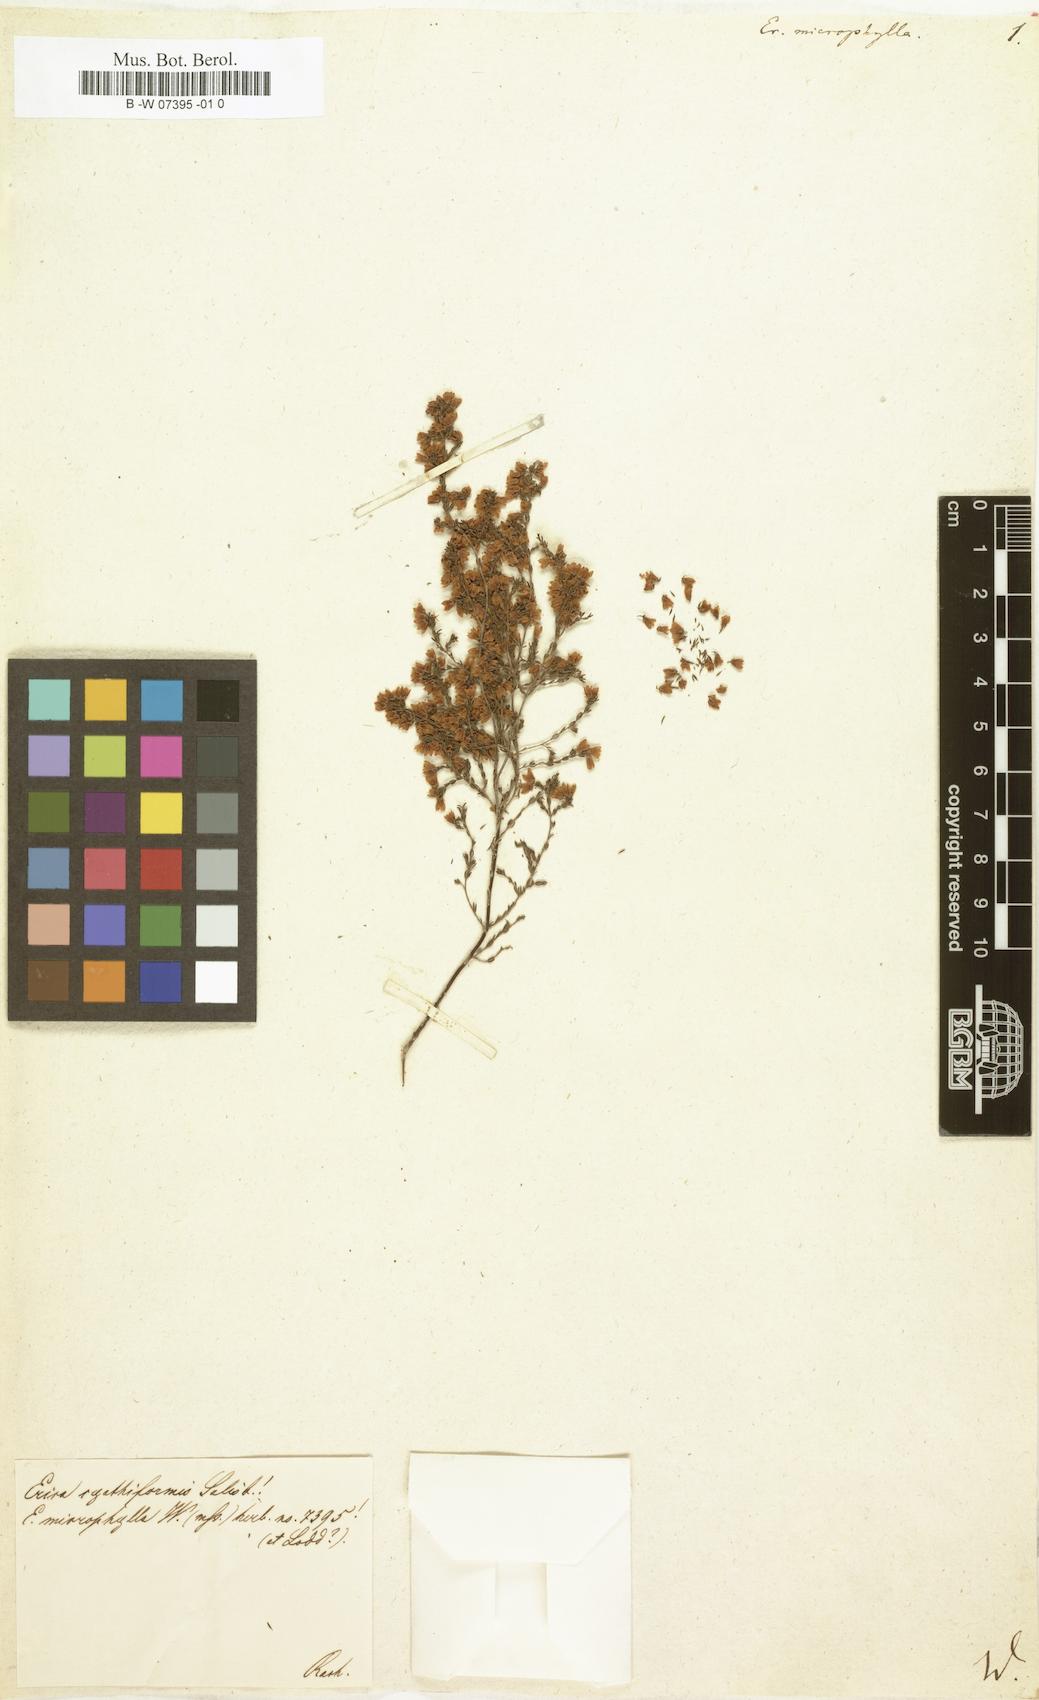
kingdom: Plantae
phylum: Tracheophyta
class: Magnoliopsida
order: Ericales
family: Ericaceae
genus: Erica
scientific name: Erica macrophylla
